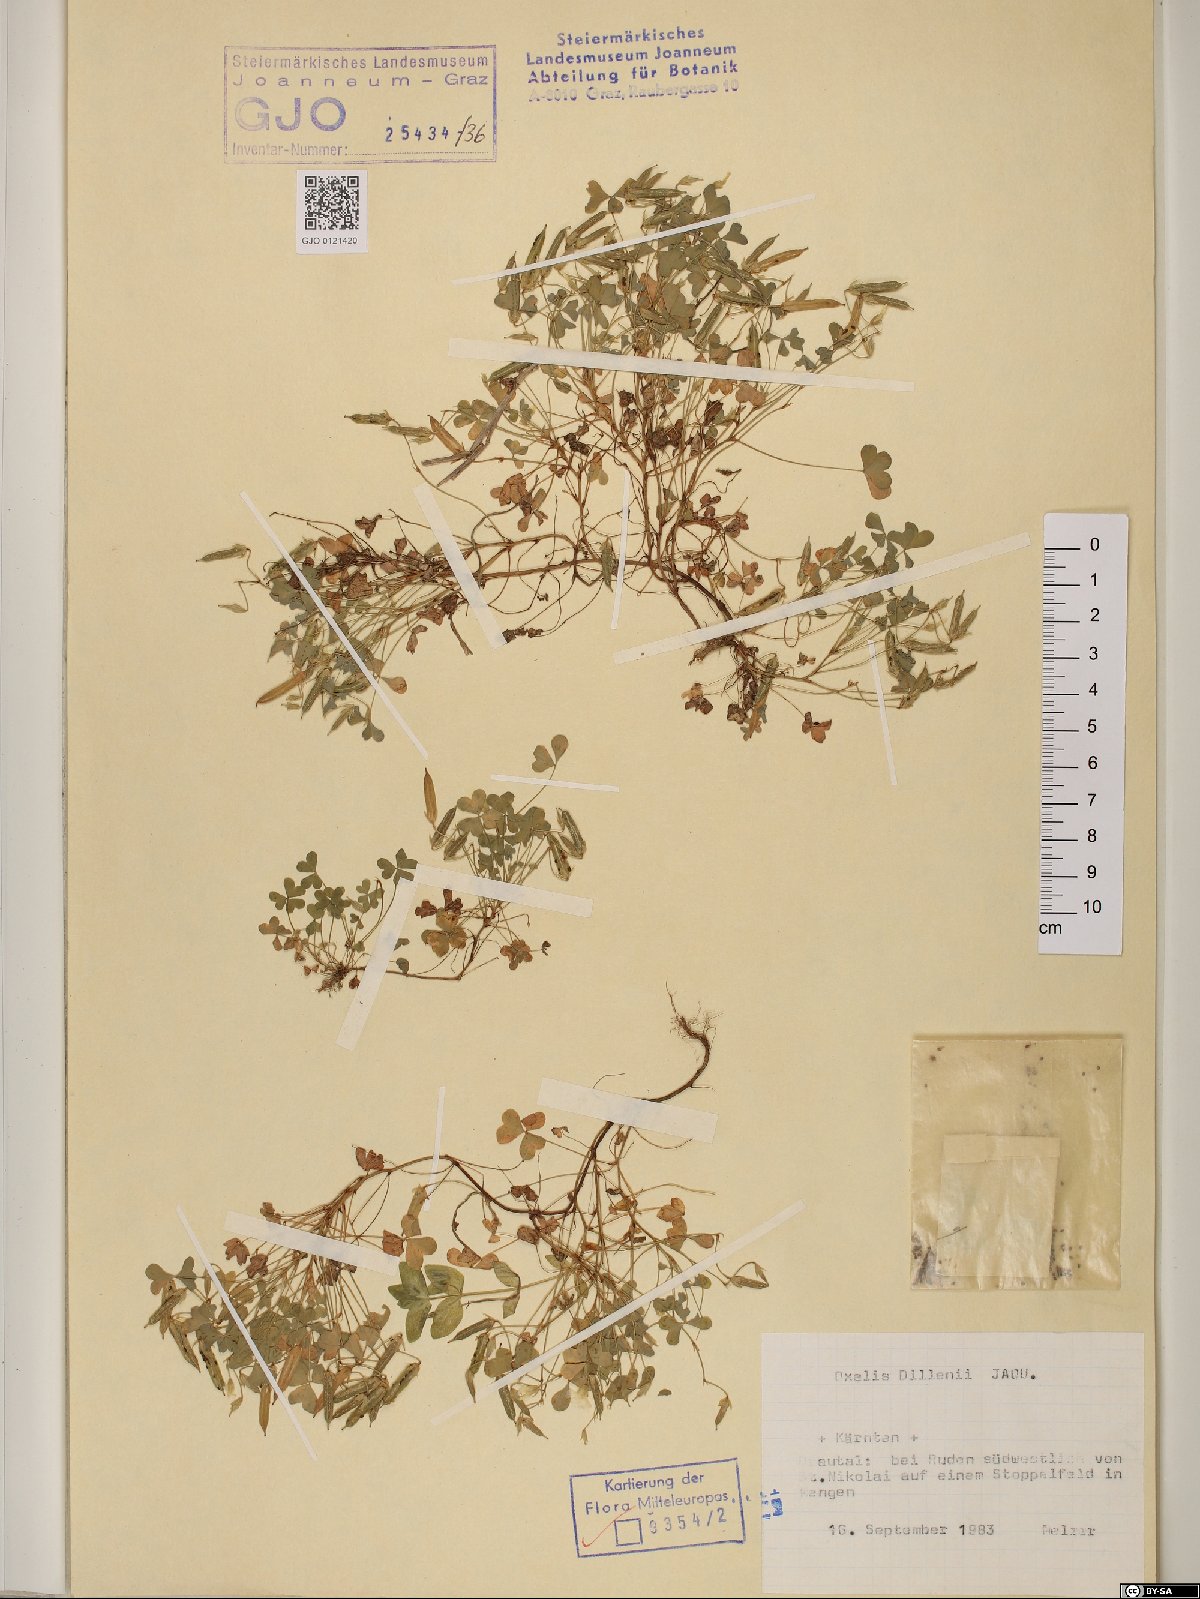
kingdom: Plantae
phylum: Tracheophyta
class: Magnoliopsida
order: Oxalidales
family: Oxalidaceae
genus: Oxalis
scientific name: Oxalis dillenii
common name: Sussex yellow-sorrel
